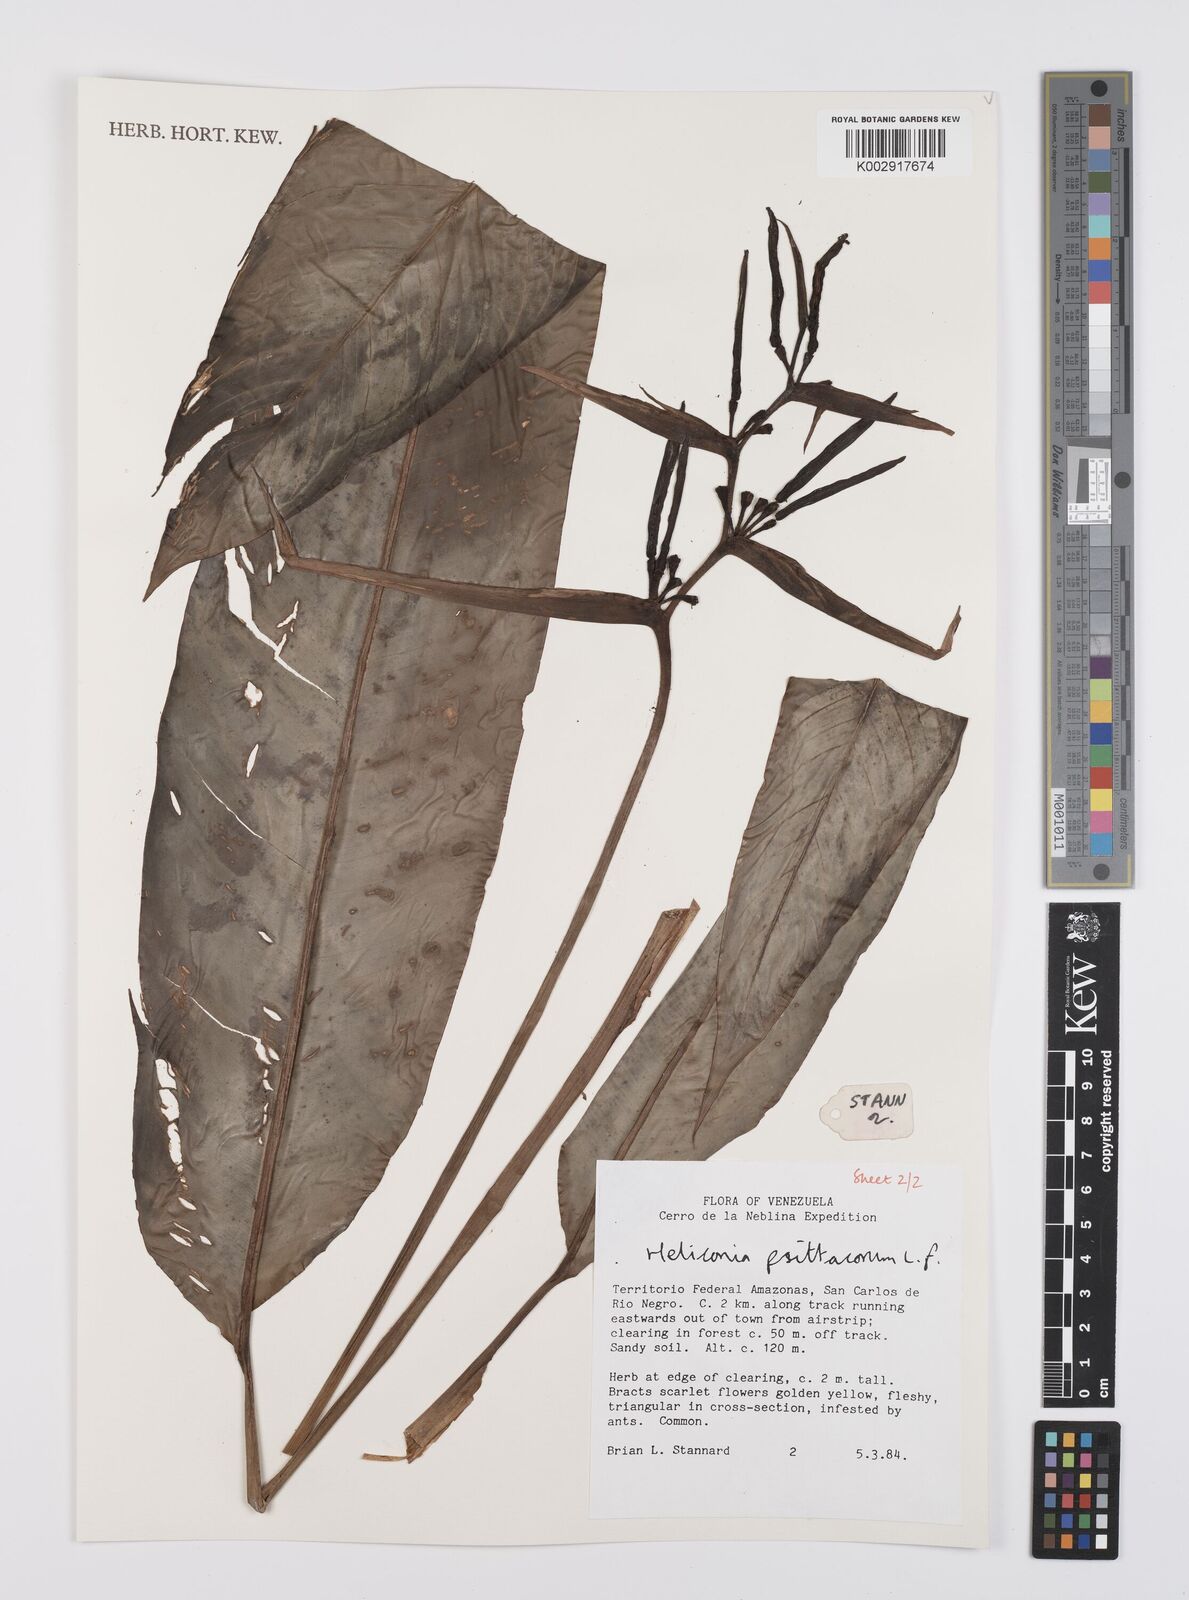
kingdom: Plantae
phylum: Tracheophyta
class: Liliopsida
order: Zingiberales
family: Heliconiaceae
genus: Heliconia
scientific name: Heliconia psittacorum
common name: Parrot's-flower
